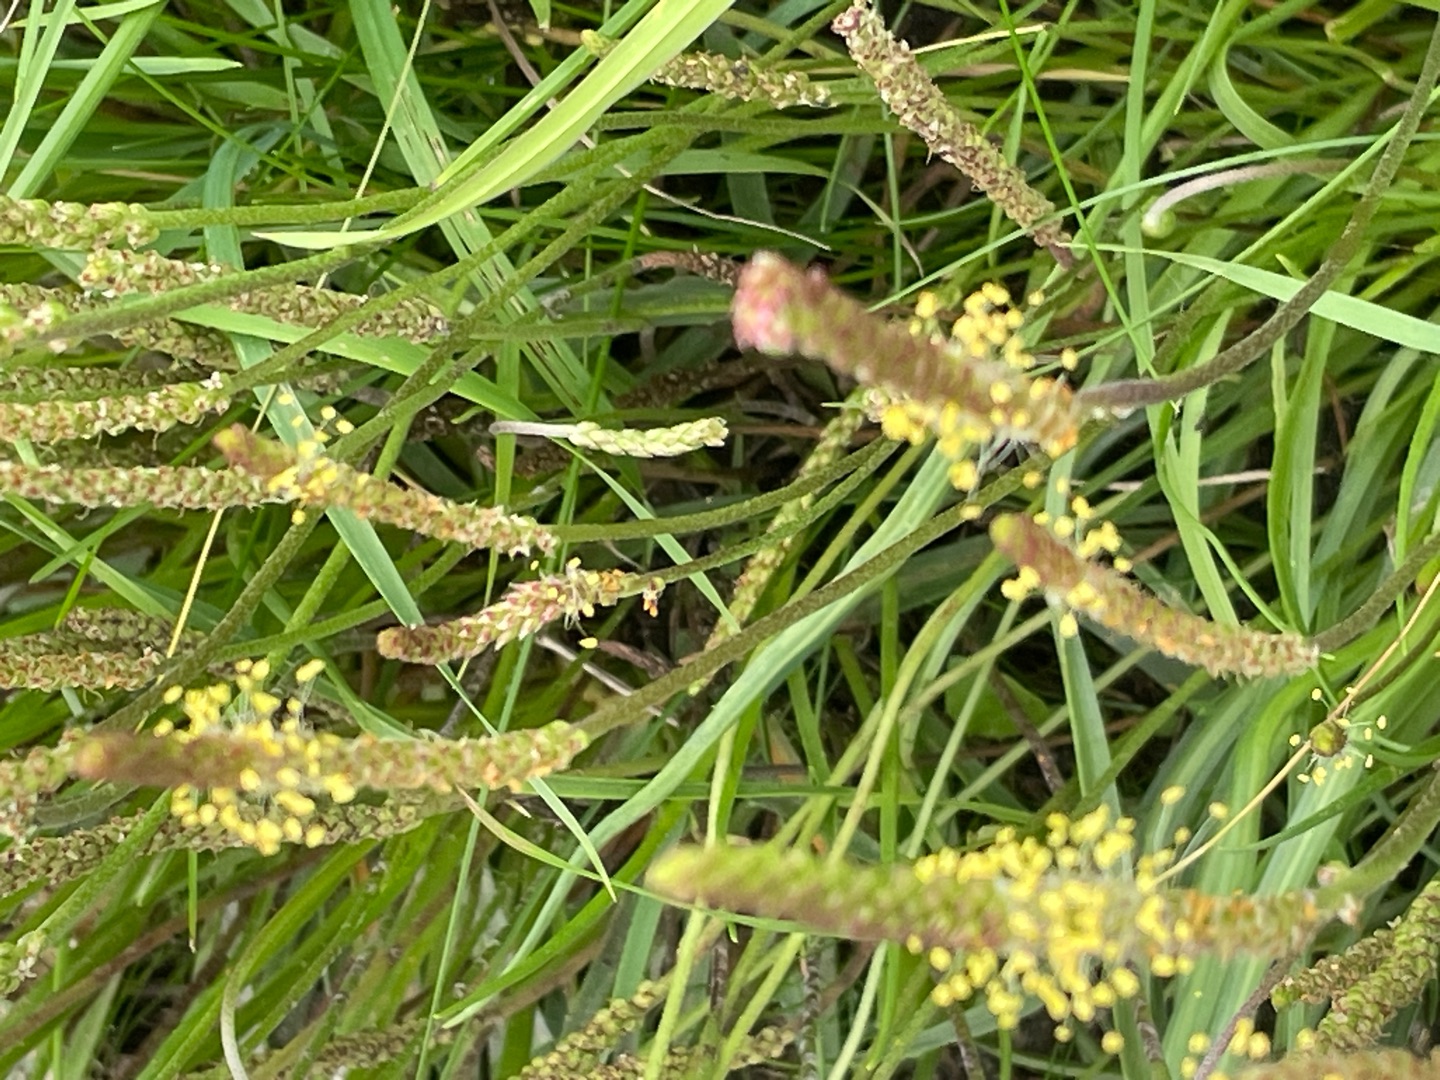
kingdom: Plantae
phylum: Tracheophyta
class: Magnoliopsida
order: Lamiales
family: Plantaginaceae
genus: Plantago
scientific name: Plantago maritima
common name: Strand-vejbred
